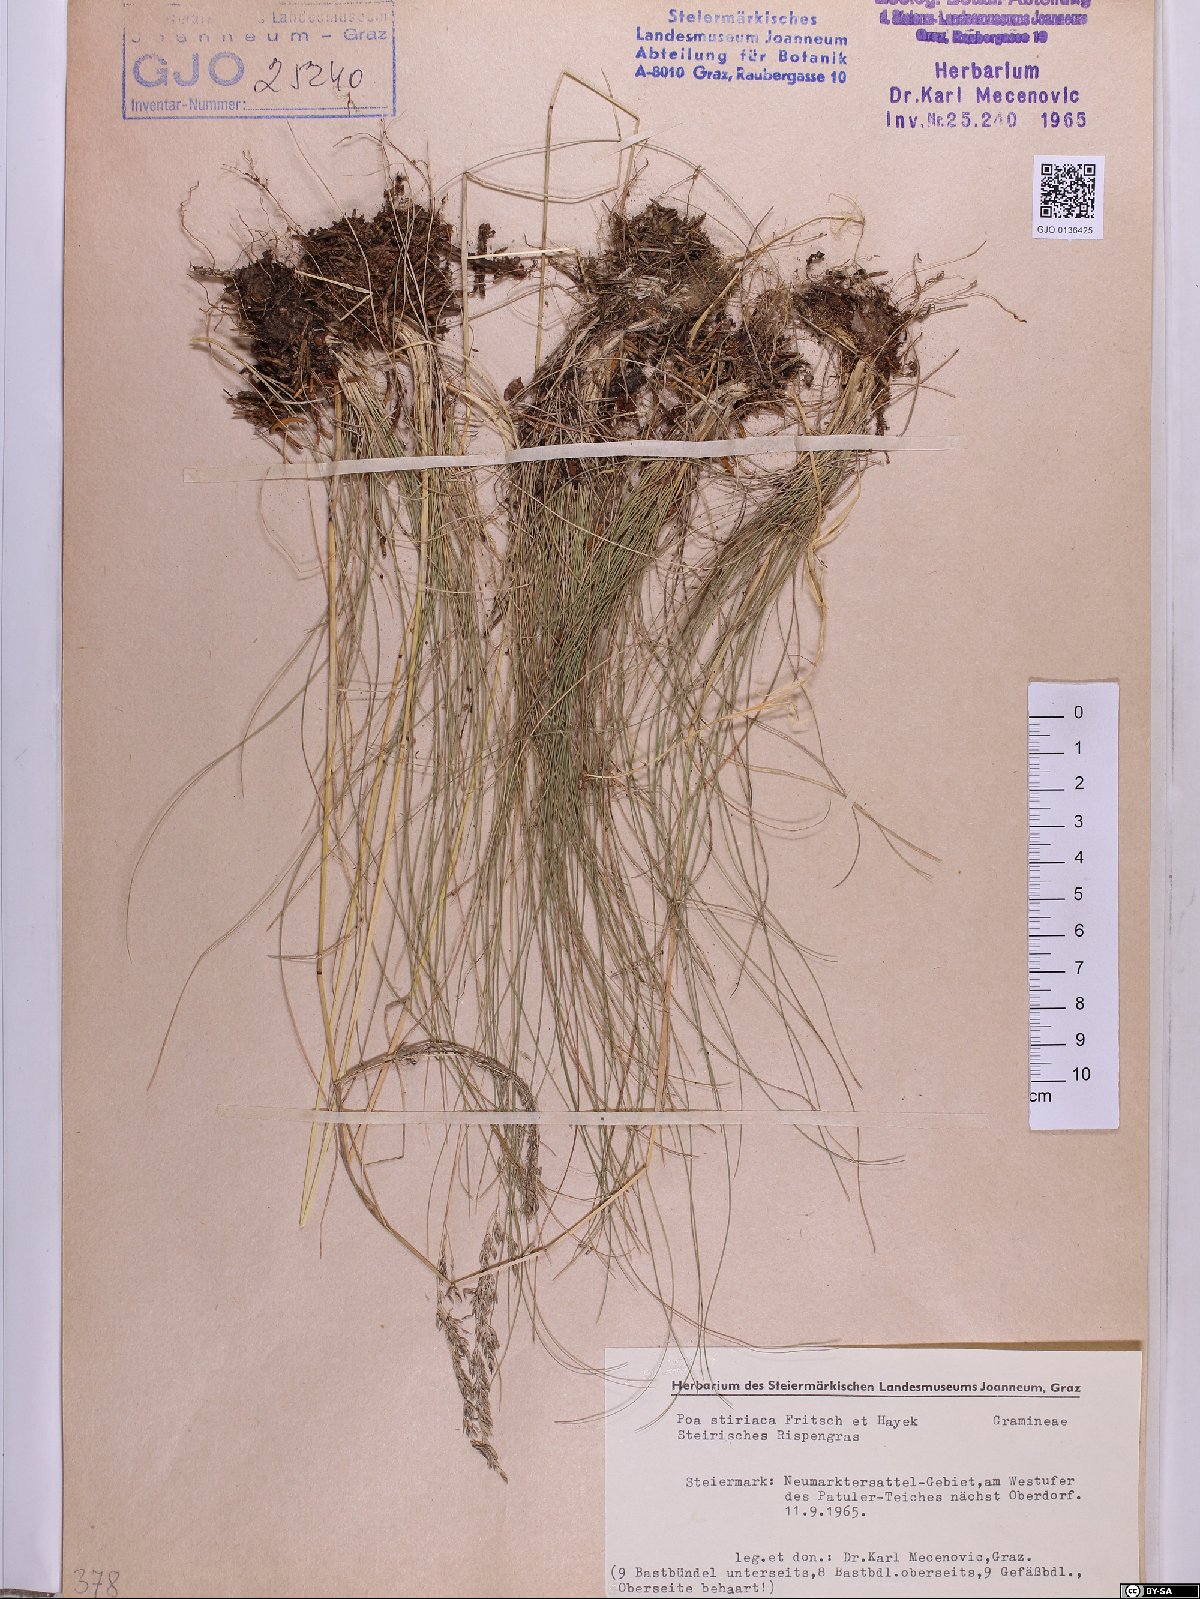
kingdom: Plantae
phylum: Tracheophyta
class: Liliopsida
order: Poales
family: Poaceae
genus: Poa
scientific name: Poa stiriaca
